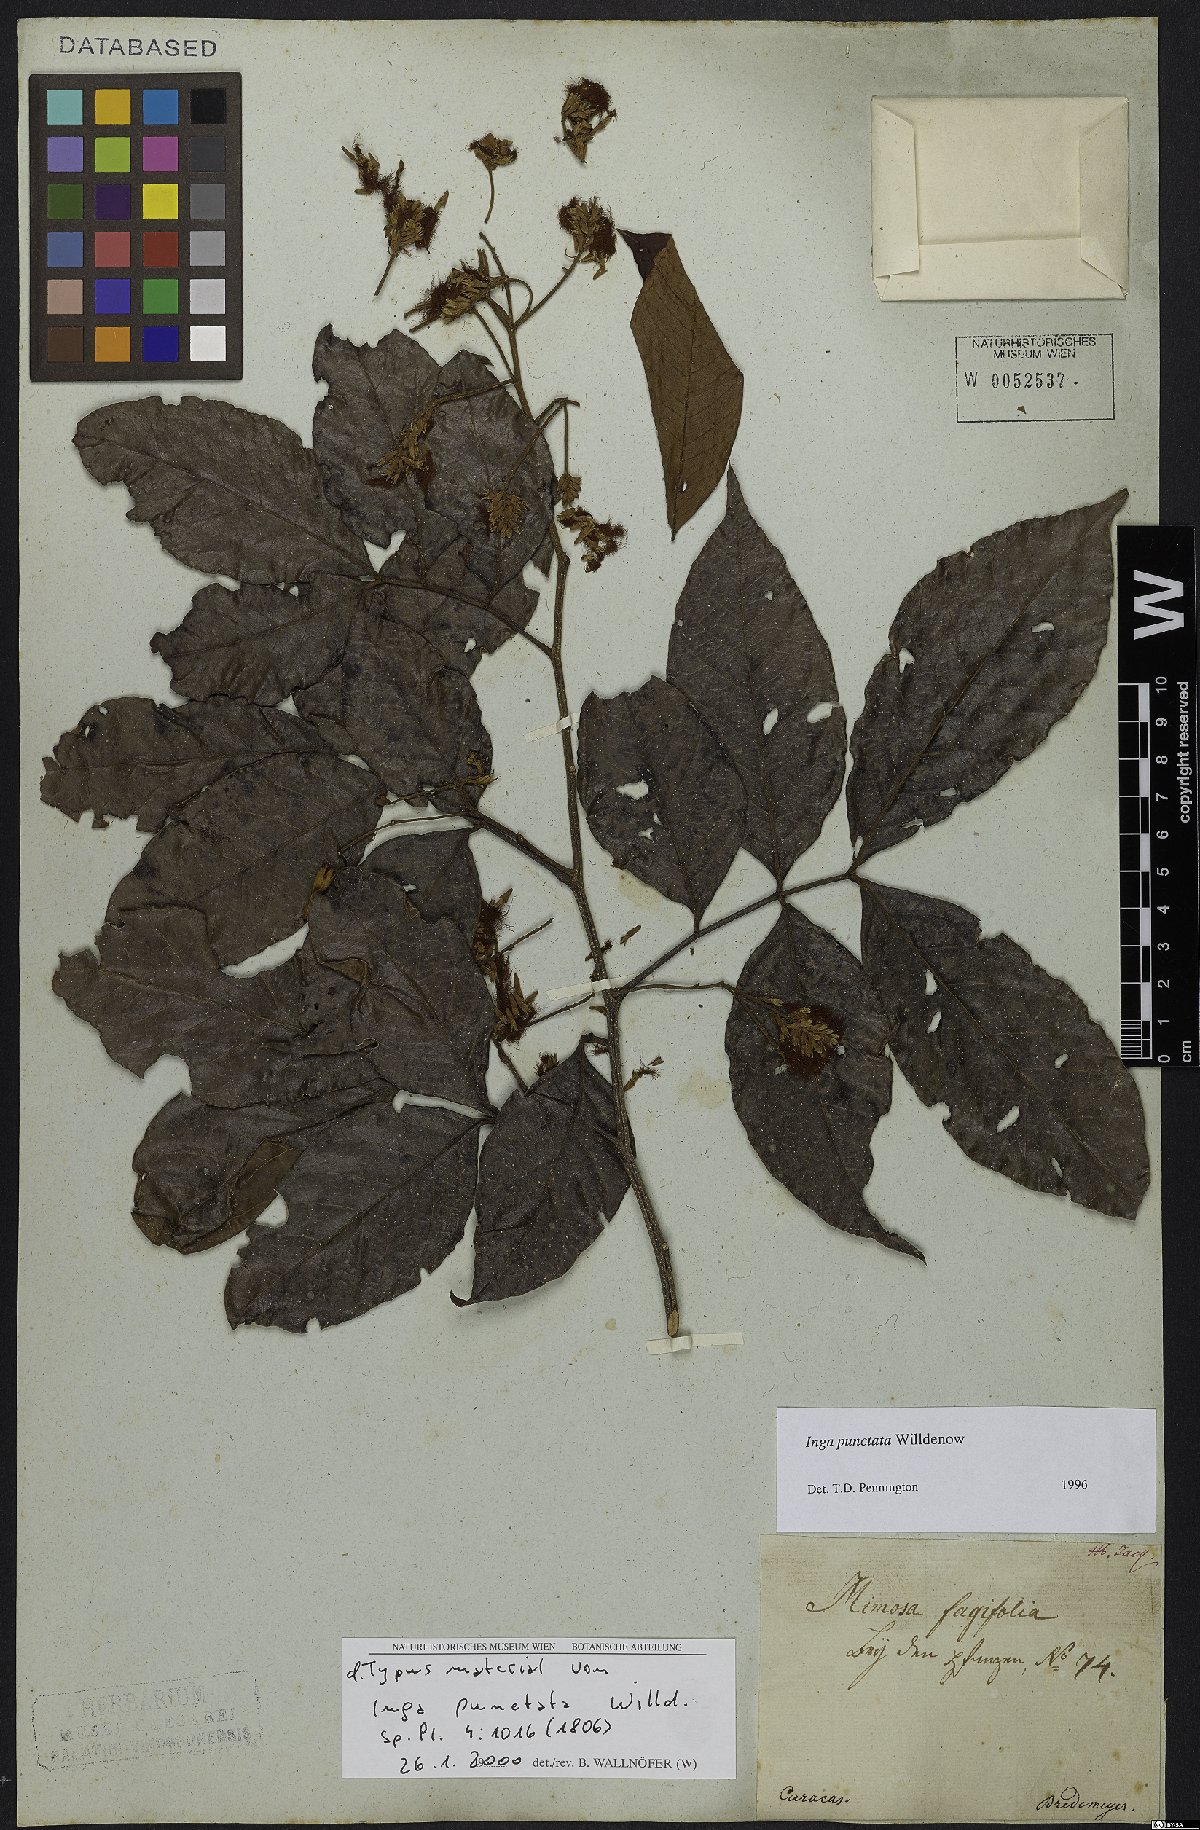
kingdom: Plantae
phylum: Tracheophyta
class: Magnoliopsida
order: Fabales
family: Fabaceae
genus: Inga
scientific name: Inga punctata
